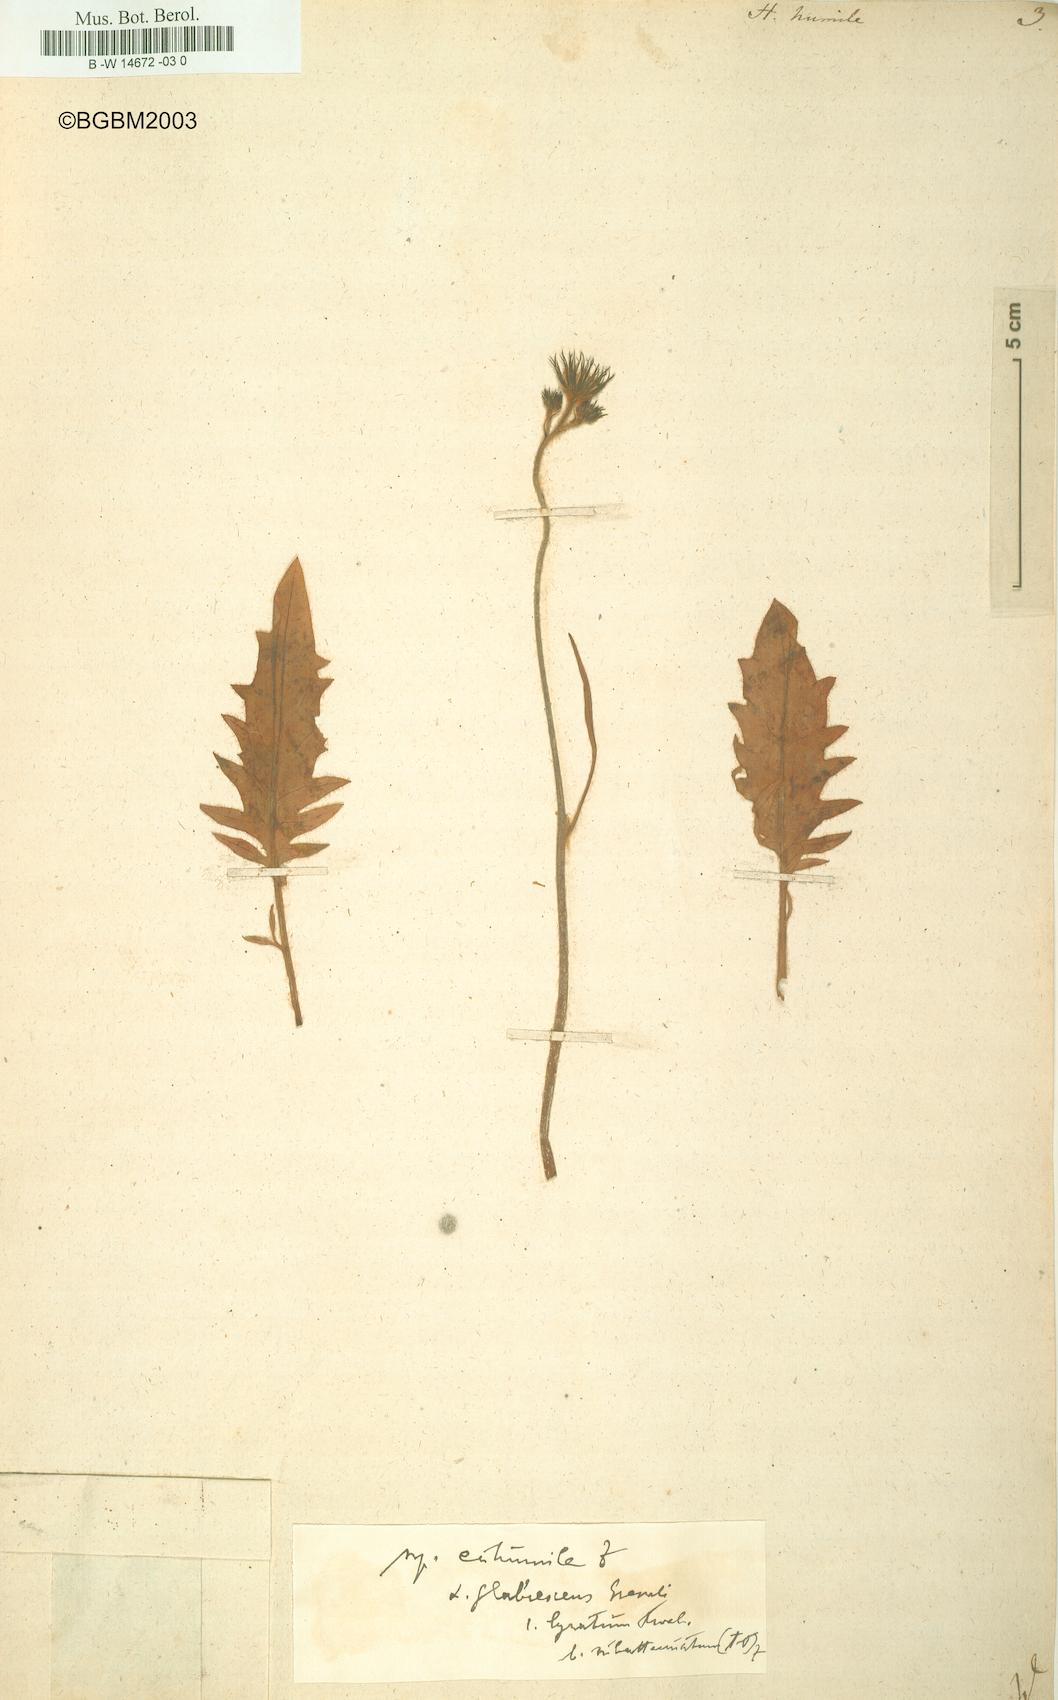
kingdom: Plantae
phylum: Tracheophyta
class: Magnoliopsida
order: Asterales
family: Asteraceae
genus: Hieracium
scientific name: Hieracium humile
